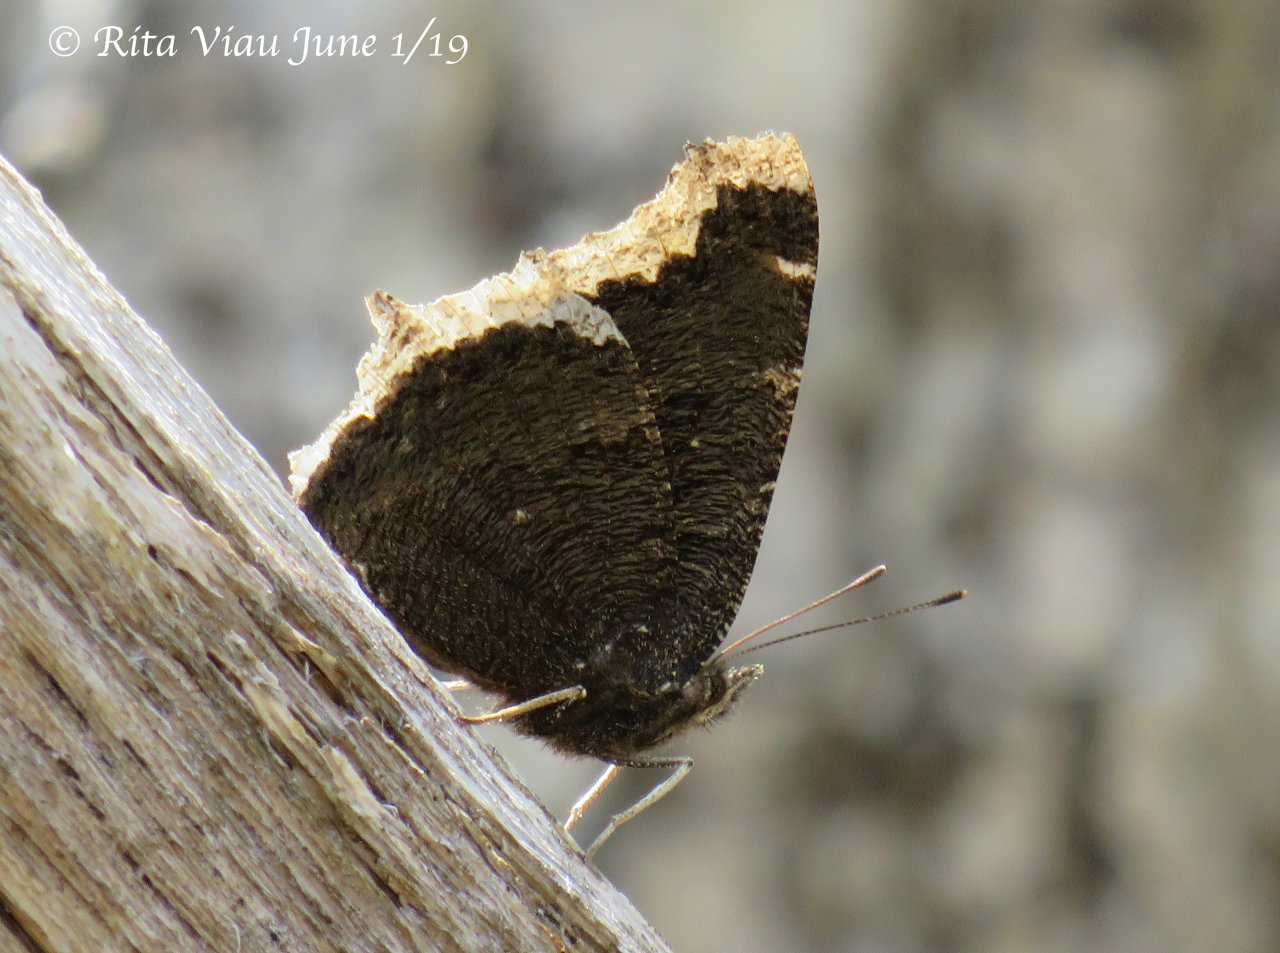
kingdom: Animalia
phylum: Arthropoda
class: Insecta
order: Lepidoptera
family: Nymphalidae
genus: Nymphalis
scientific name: Nymphalis antiopa
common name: Mourning Cloak
